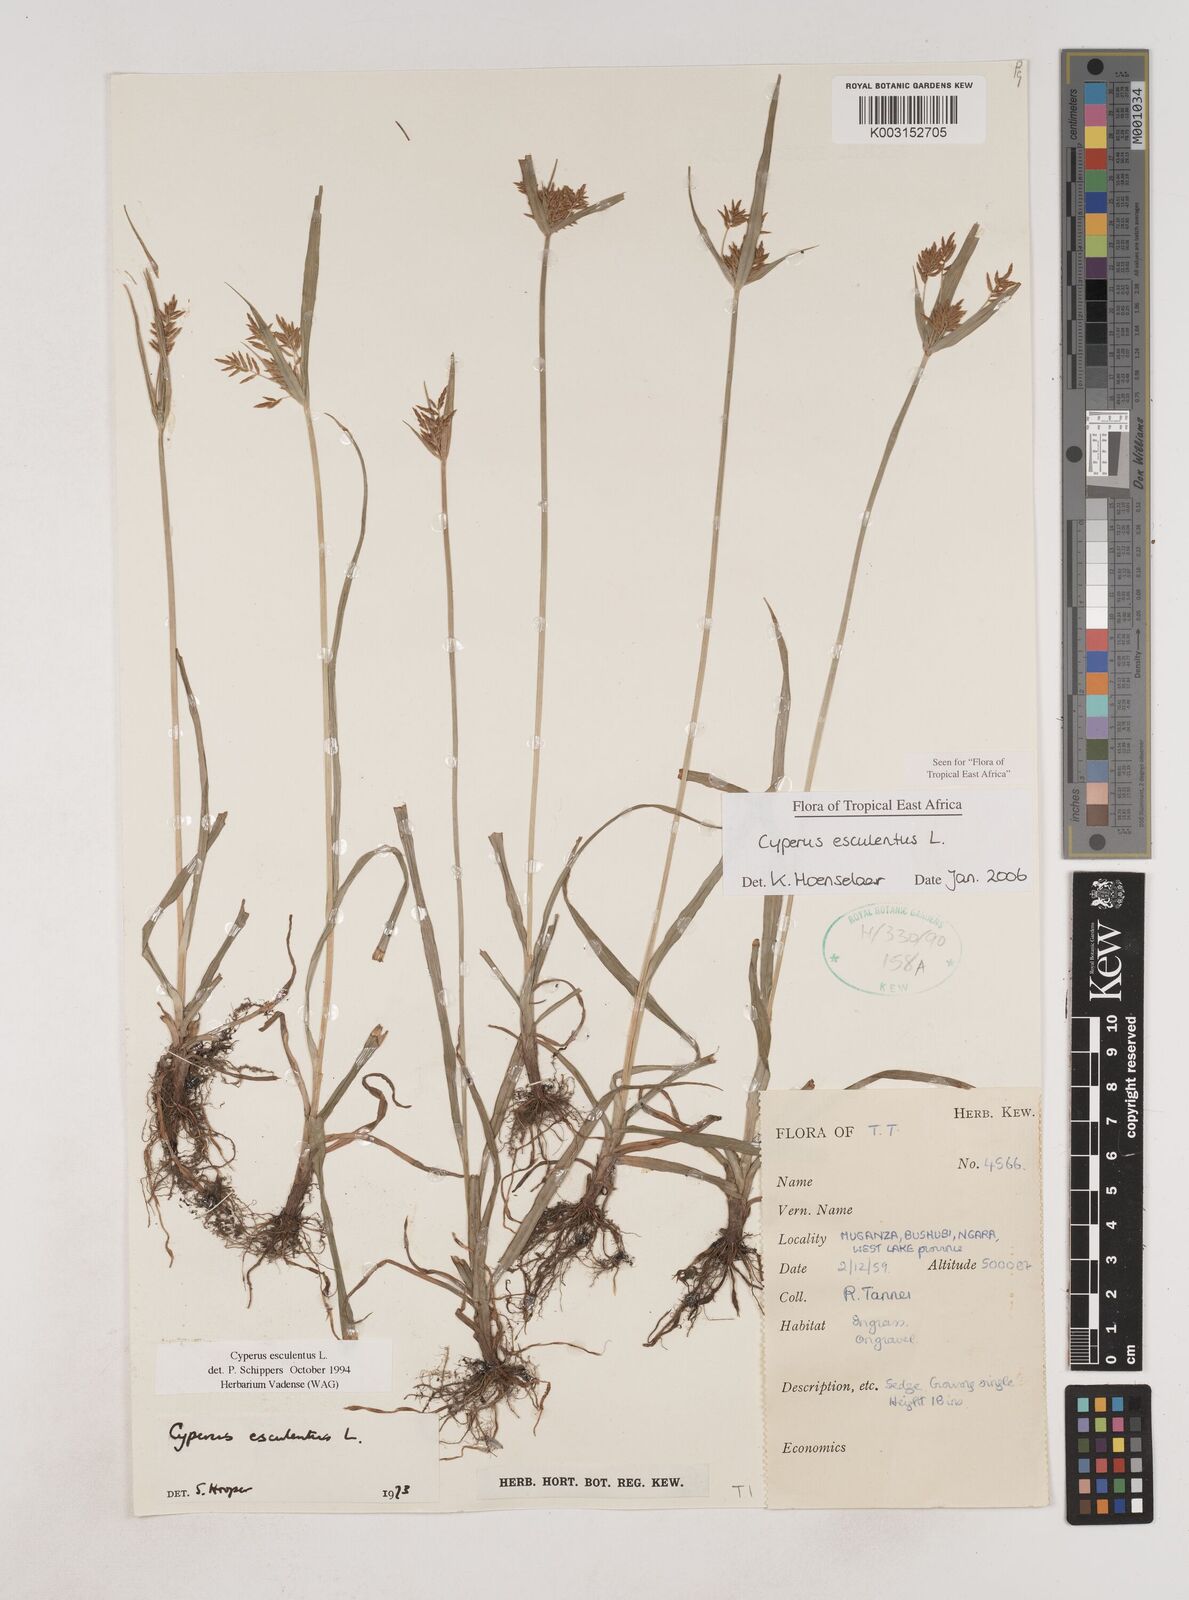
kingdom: Plantae
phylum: Tracheophyta
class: Liliopsida
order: Poales
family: Cyperaceae
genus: Cyperus
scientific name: Cyperus esculentus
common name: Yellow nutsedge
